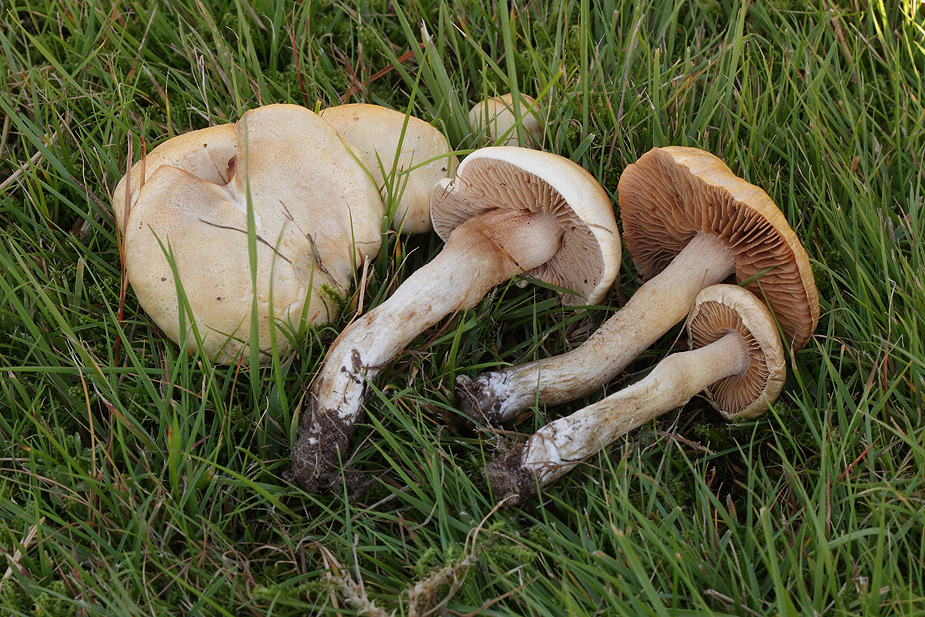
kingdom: Fungi
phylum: Basidiomycota
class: Agaricomycetes
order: Agaricales
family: Hymenogastraceae
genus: Hebeloma
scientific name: Hebeloma sacchariolens
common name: sødtduftende tåreblad
